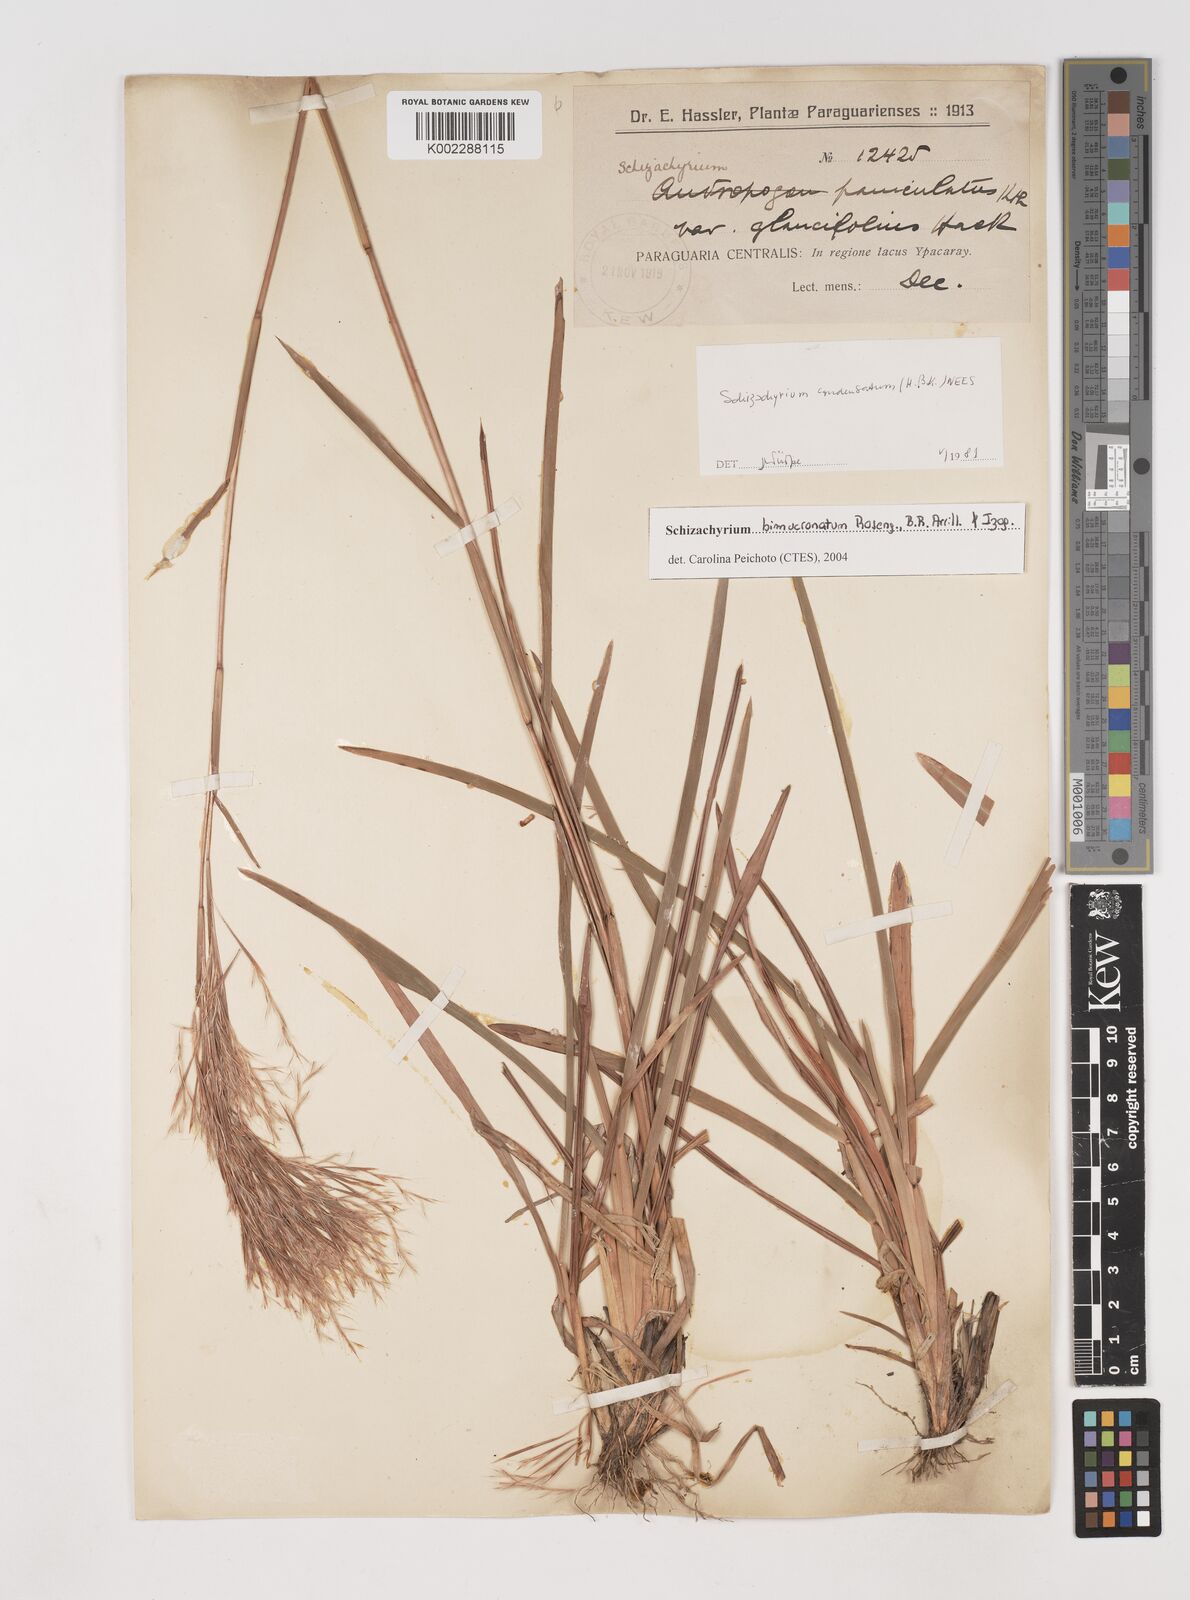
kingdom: Plantae
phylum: Tracheophyta
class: Liliopsida
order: Poales
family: Poaceae
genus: Schizachyrium
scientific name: Schizachyrium condensatum
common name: Bush beardgrass
